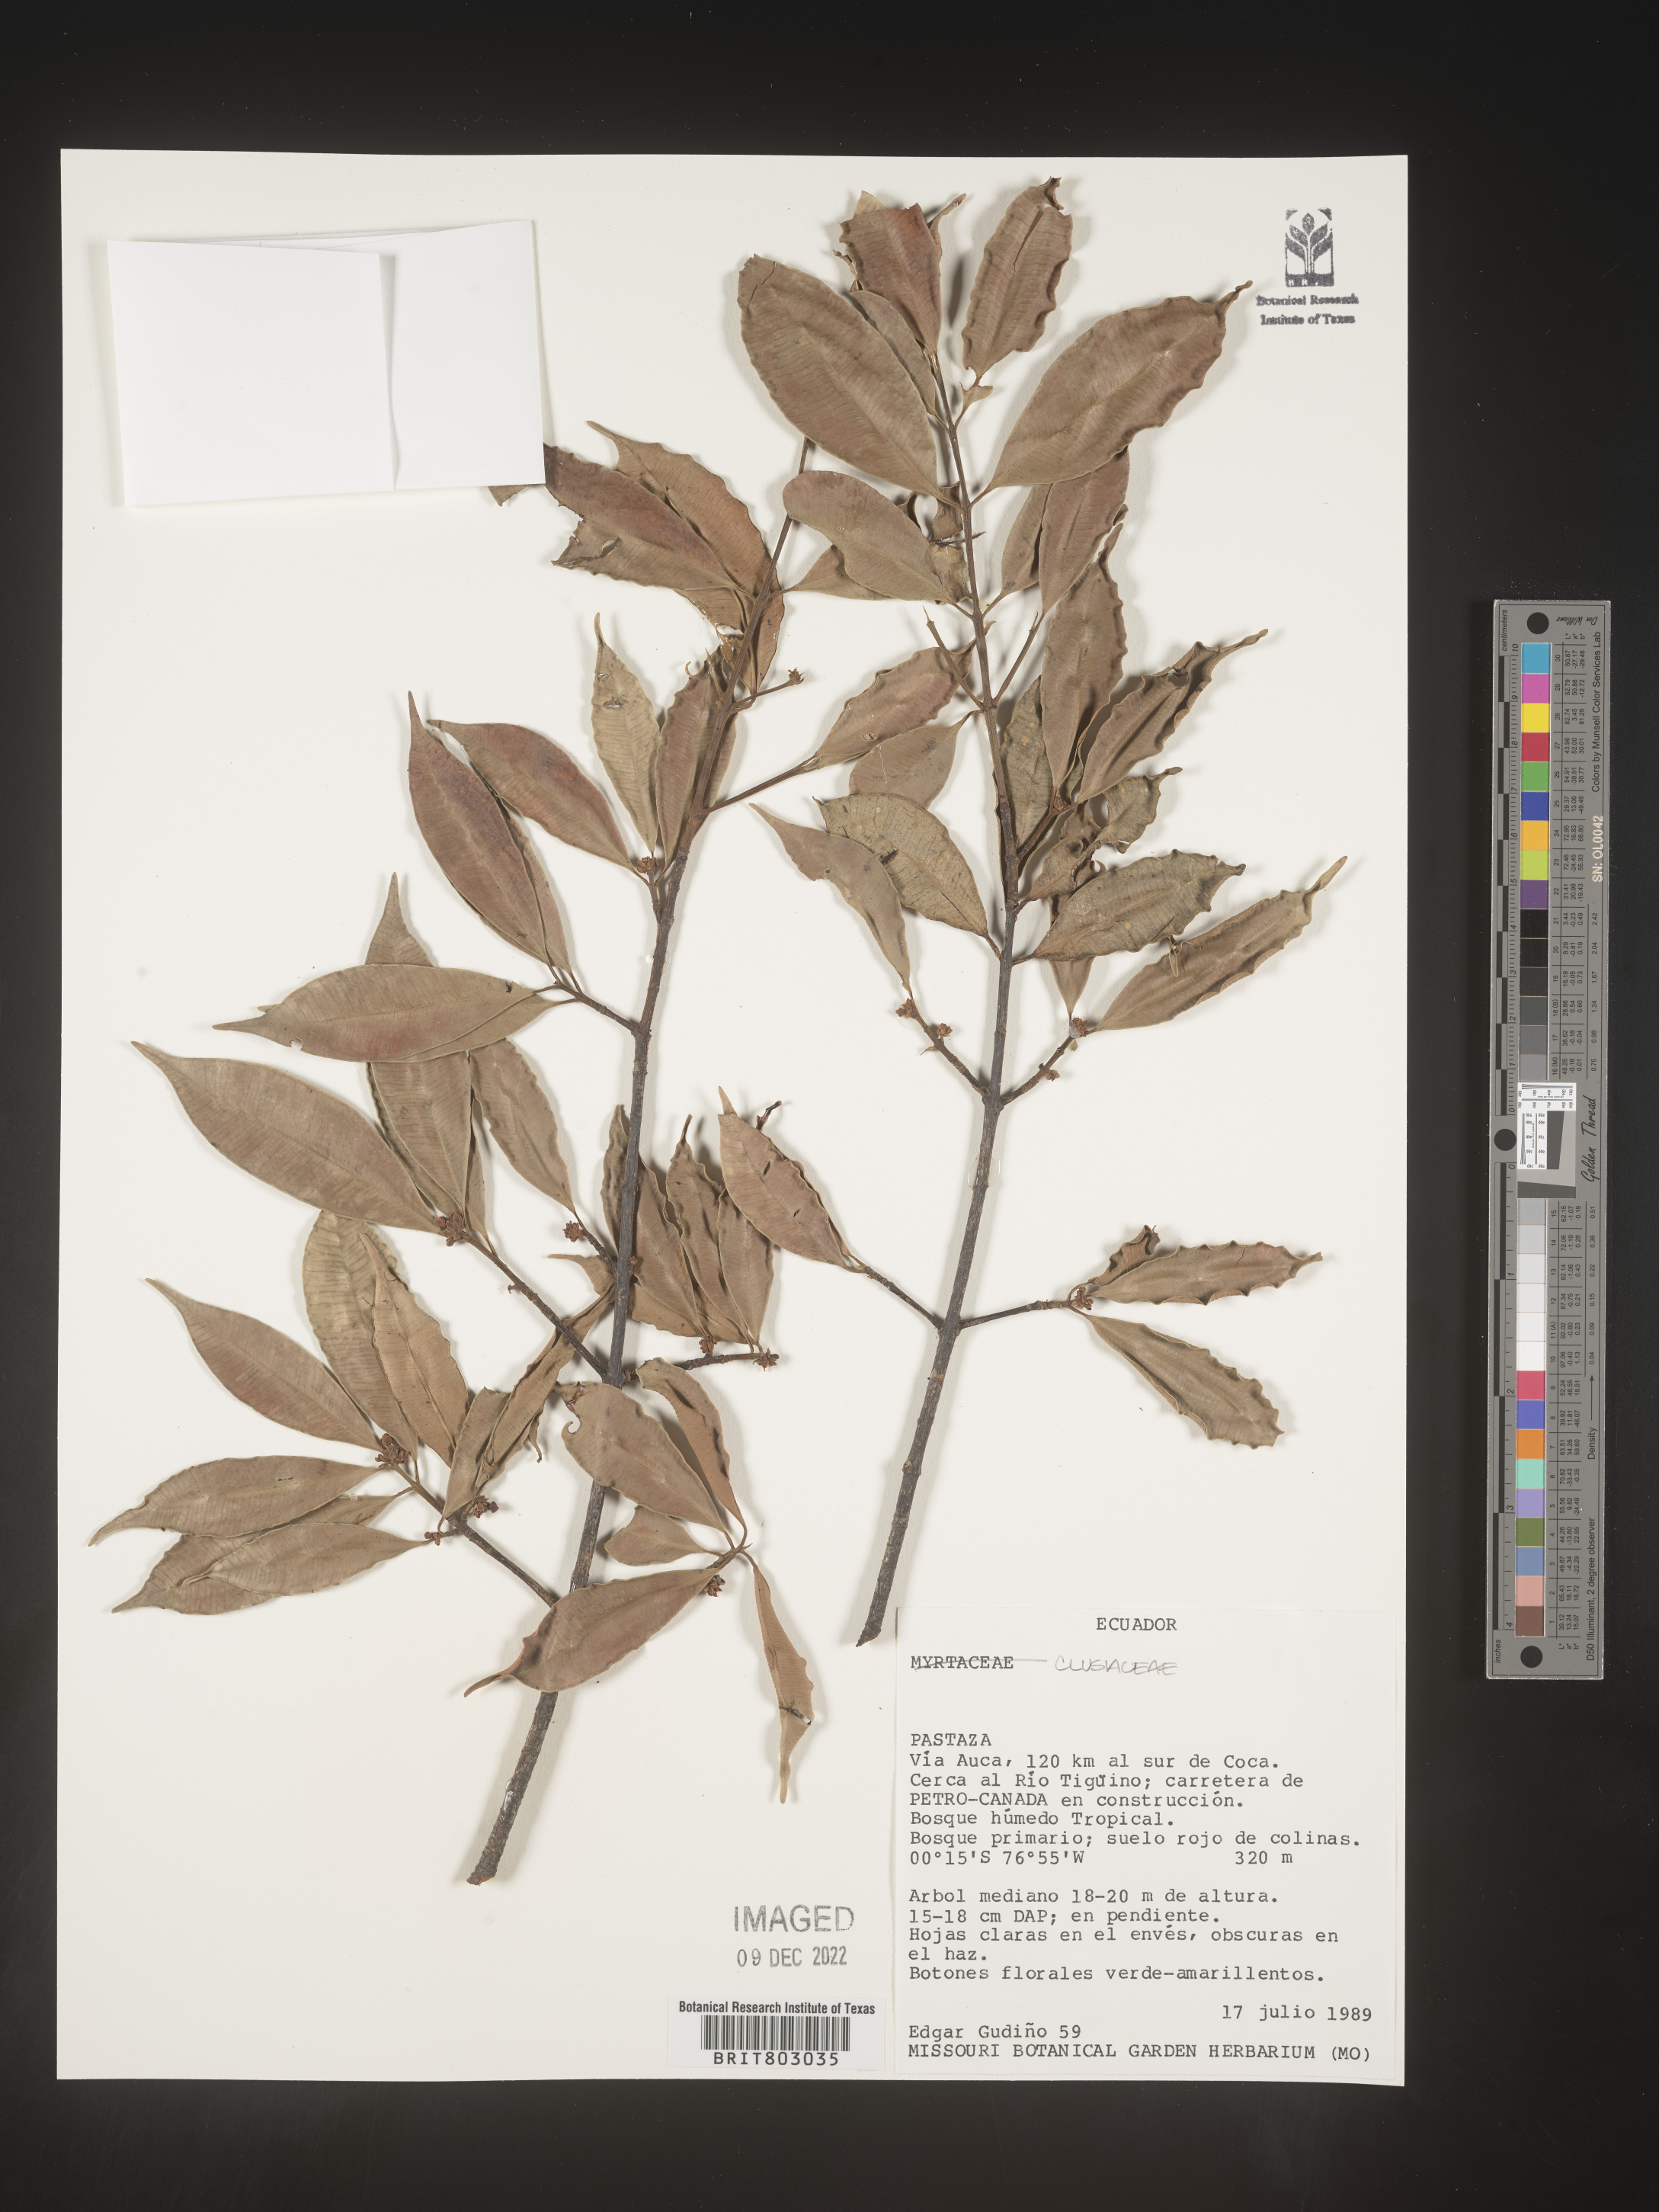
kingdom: Plantae
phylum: Tracheophyta
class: Magnoliopsida
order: Malpighiales
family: Clusiaceae
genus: Symphonia
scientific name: Symphonia
